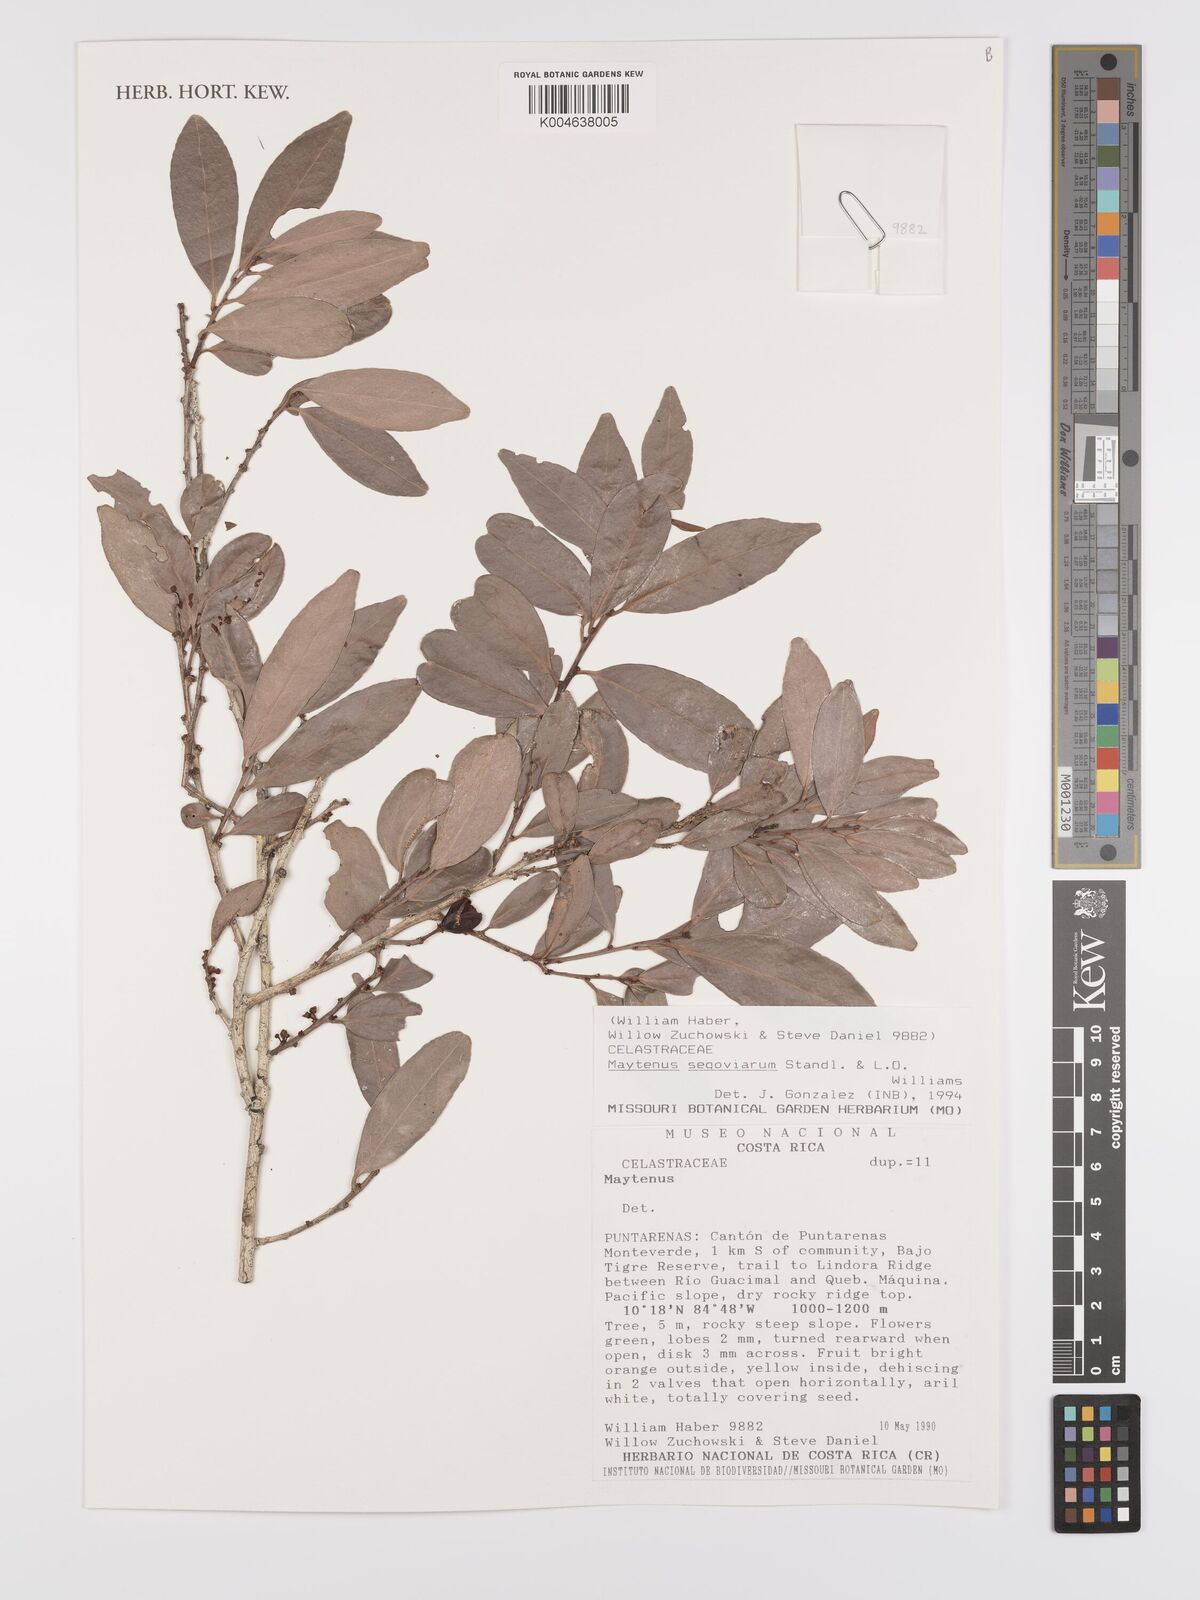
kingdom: Plantae
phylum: Tracheophyta
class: Magnoliopsida
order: Celastrales
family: Celastraceae
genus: Monteverdia
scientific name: Monteverdia segoviarum
